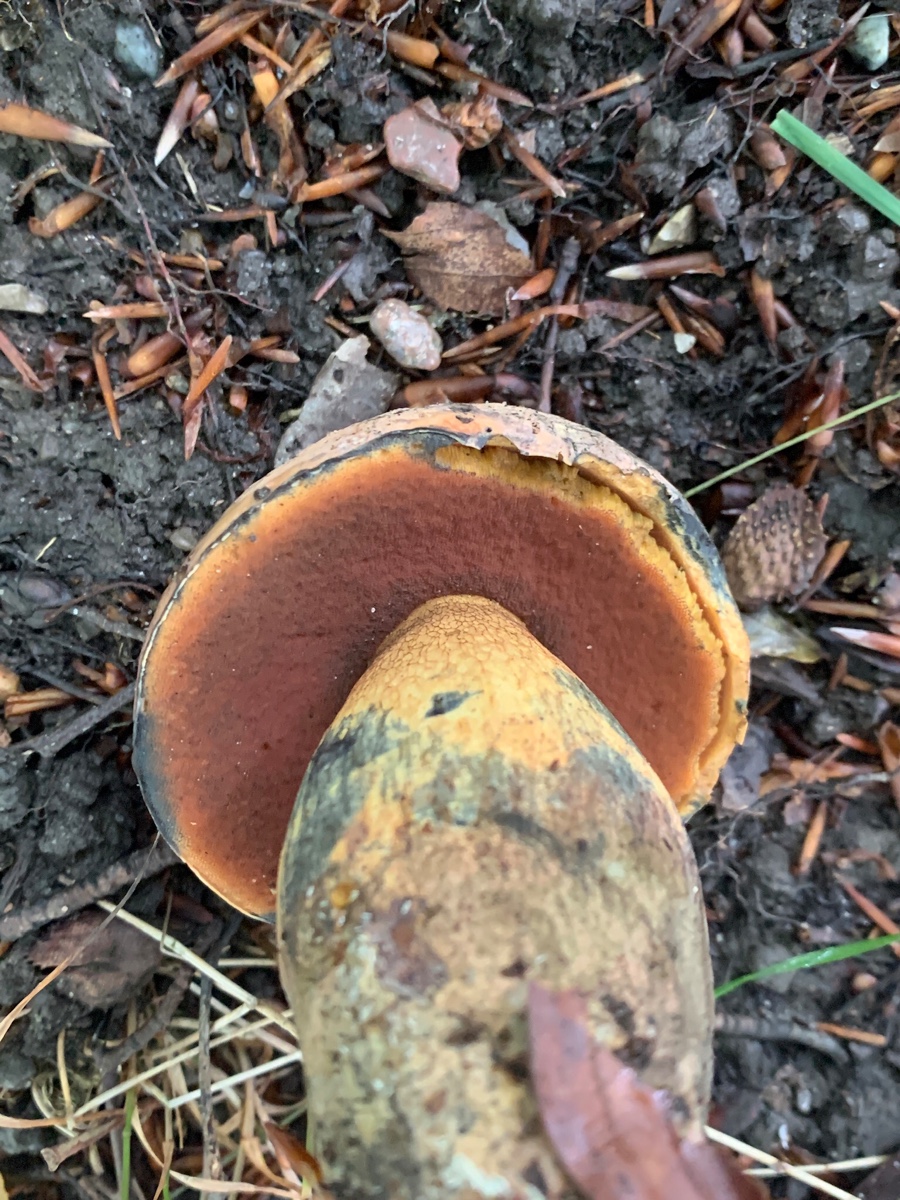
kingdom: Fungi
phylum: Basidiomycota
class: Agaricomycetes
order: Boletales
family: Boletaceae
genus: Suillellus
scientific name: Suillellus luridus
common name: netstokket indigorørhat
